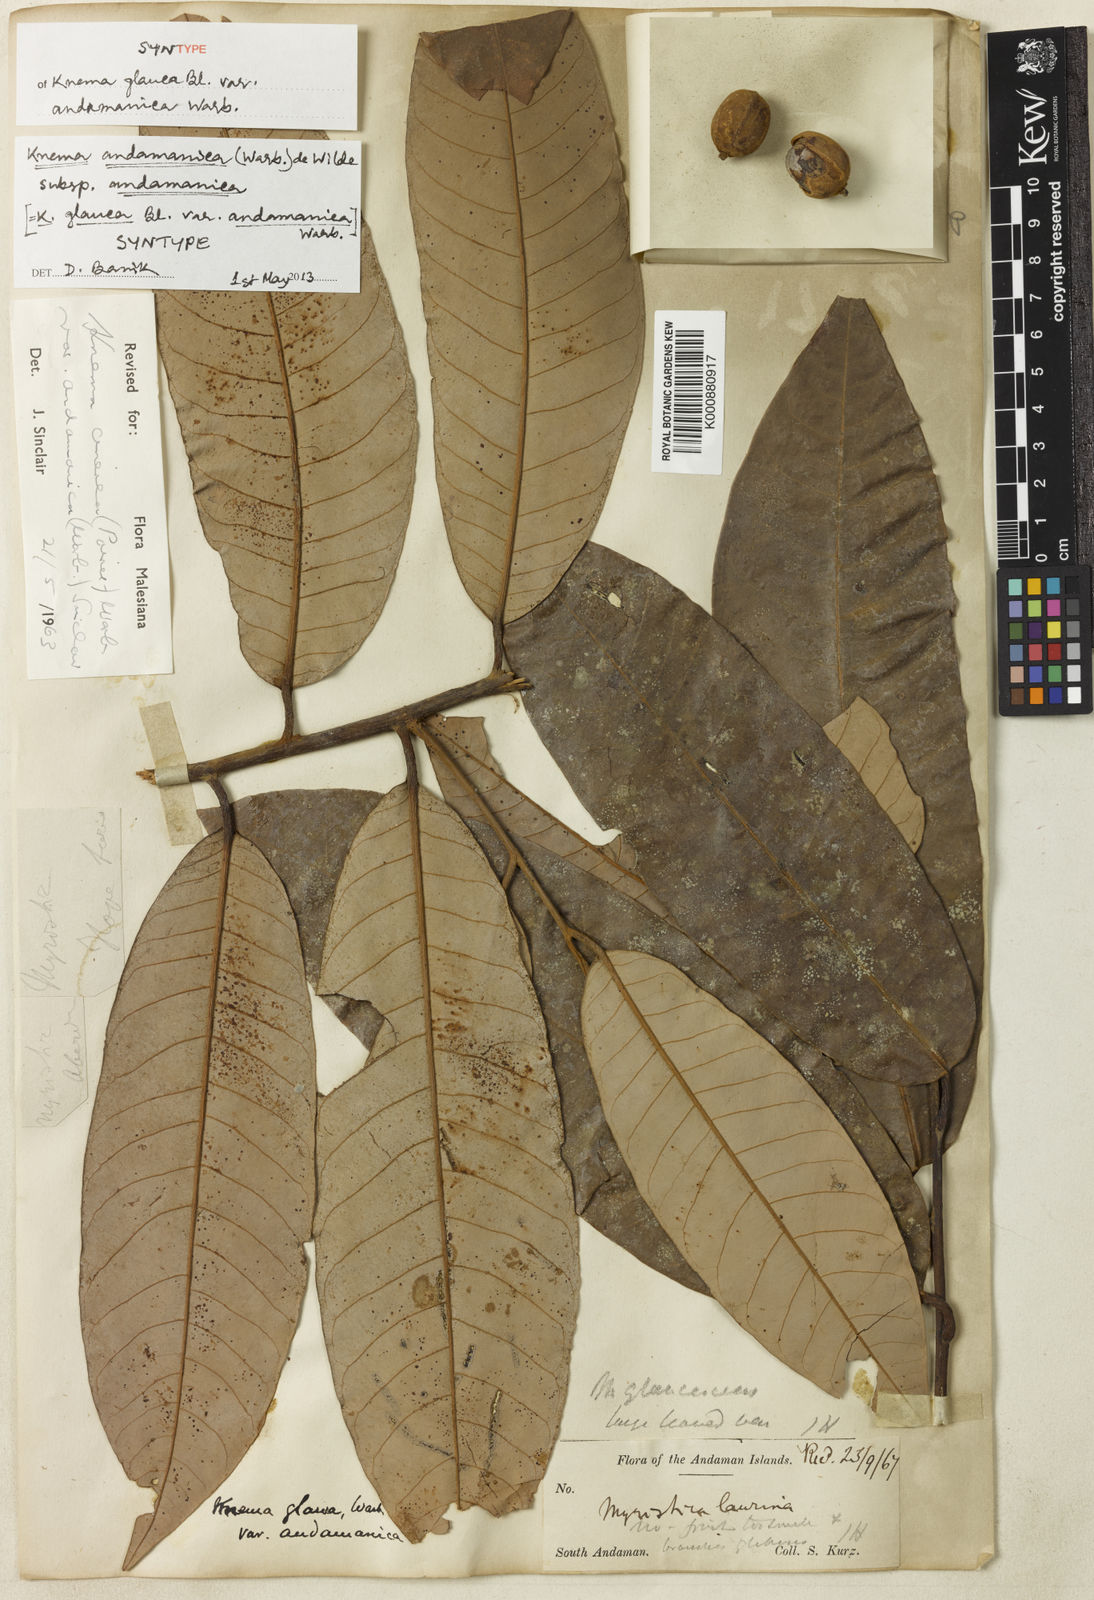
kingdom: Plantae
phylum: Tracheophyta
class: Magnoliopsida
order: Magnoliales
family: Myristicaceae
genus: Knema
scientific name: Knema andamanica
